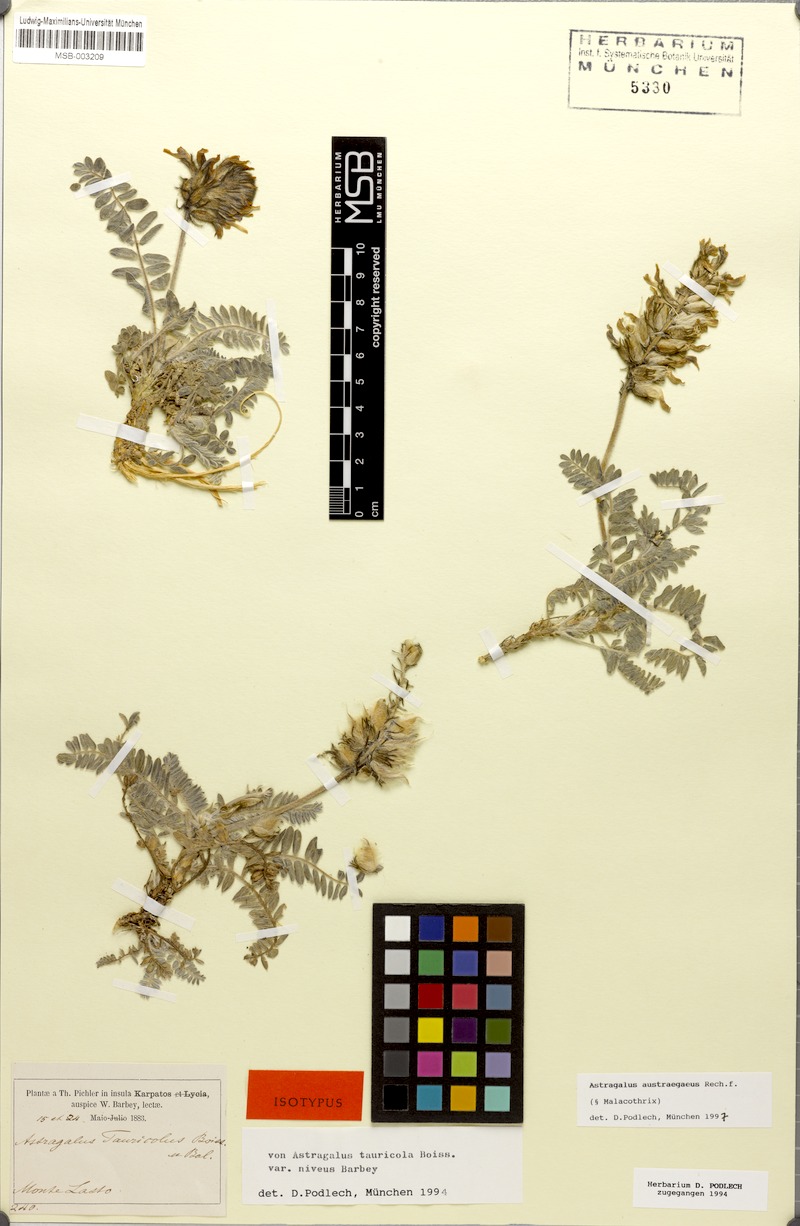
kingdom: Plantae
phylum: Tracheophyta
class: Magnoliopsida
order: Fabales
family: Fabaceae
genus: Astragalus
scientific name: Astragalus austroaegaeus
